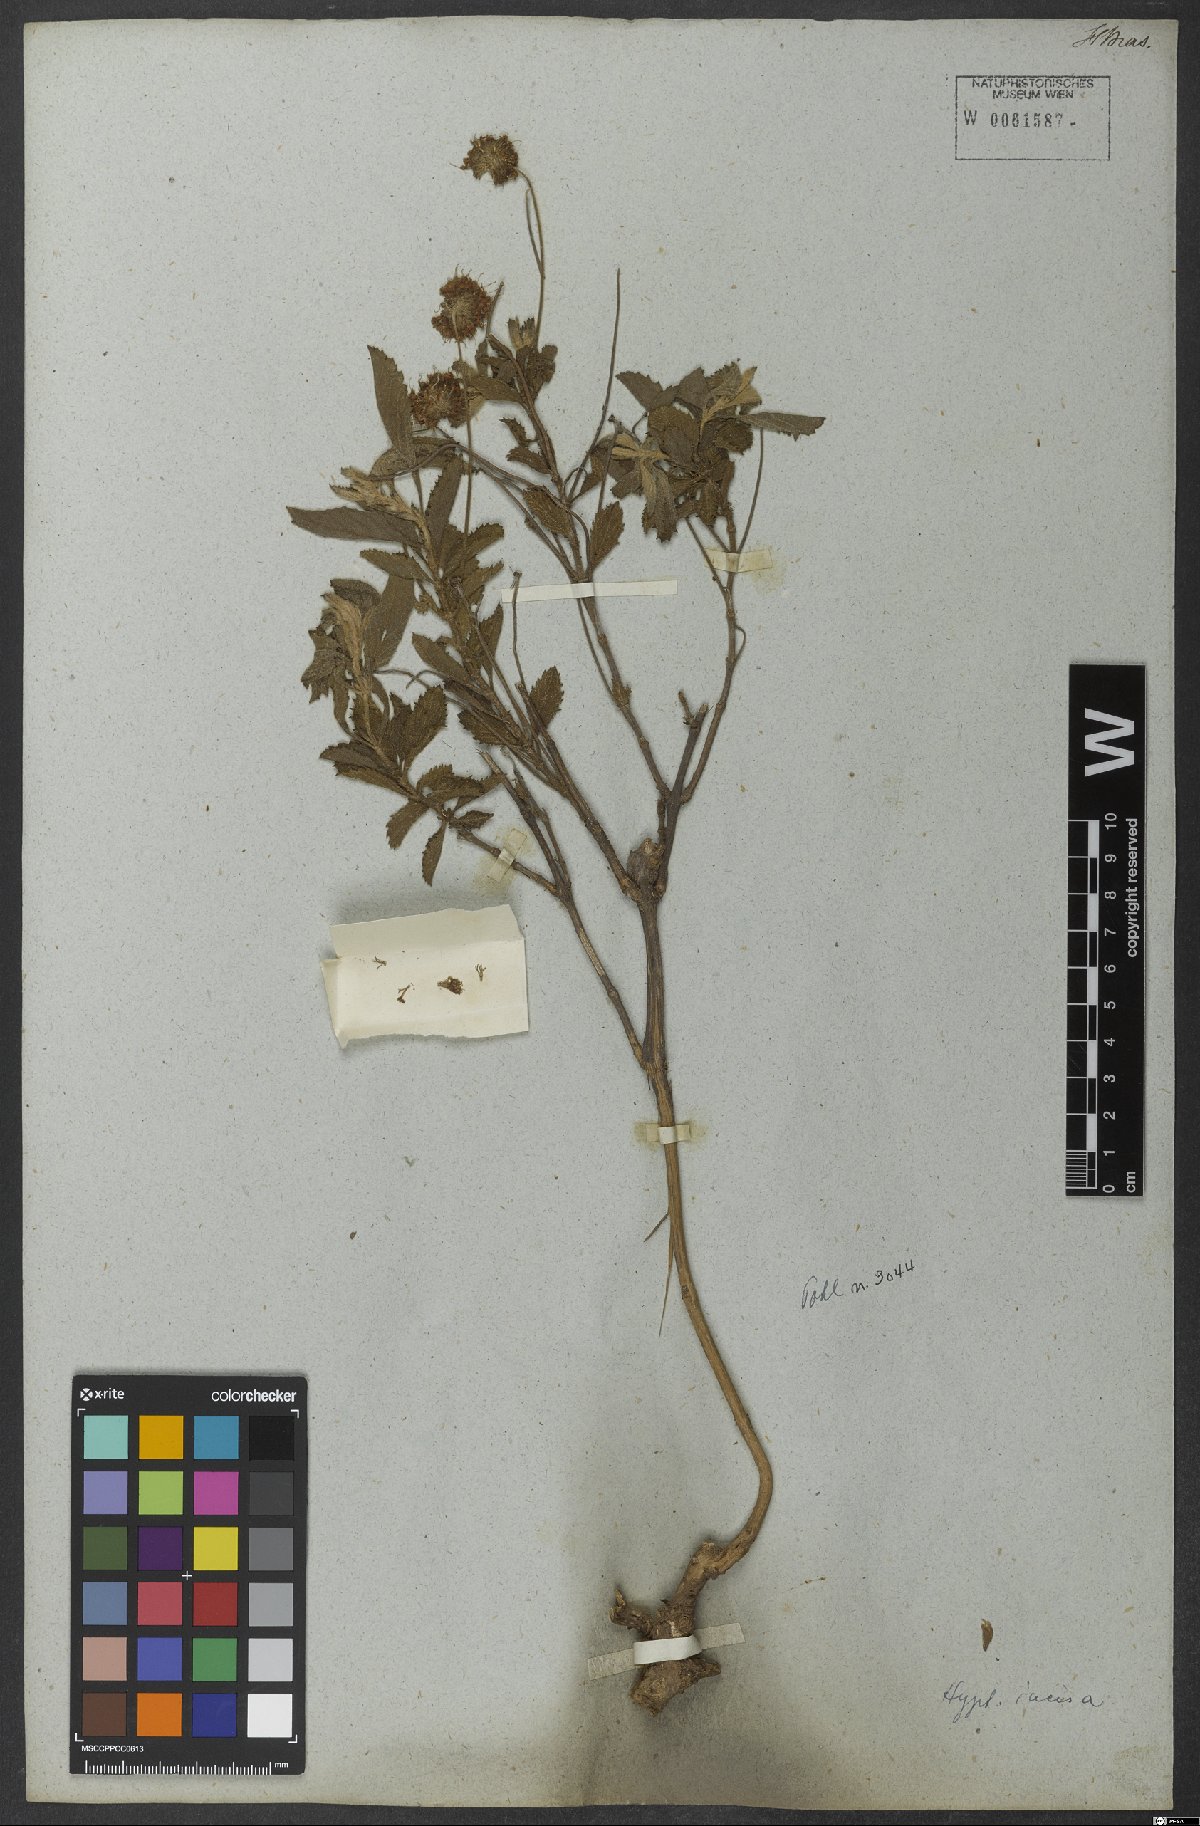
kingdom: Plantae
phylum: Tracheophyta
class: Magnoliopsida
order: Lamiales
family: Lamiaceae
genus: Cyanocephalus
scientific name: Cyanocephalus rugosus
